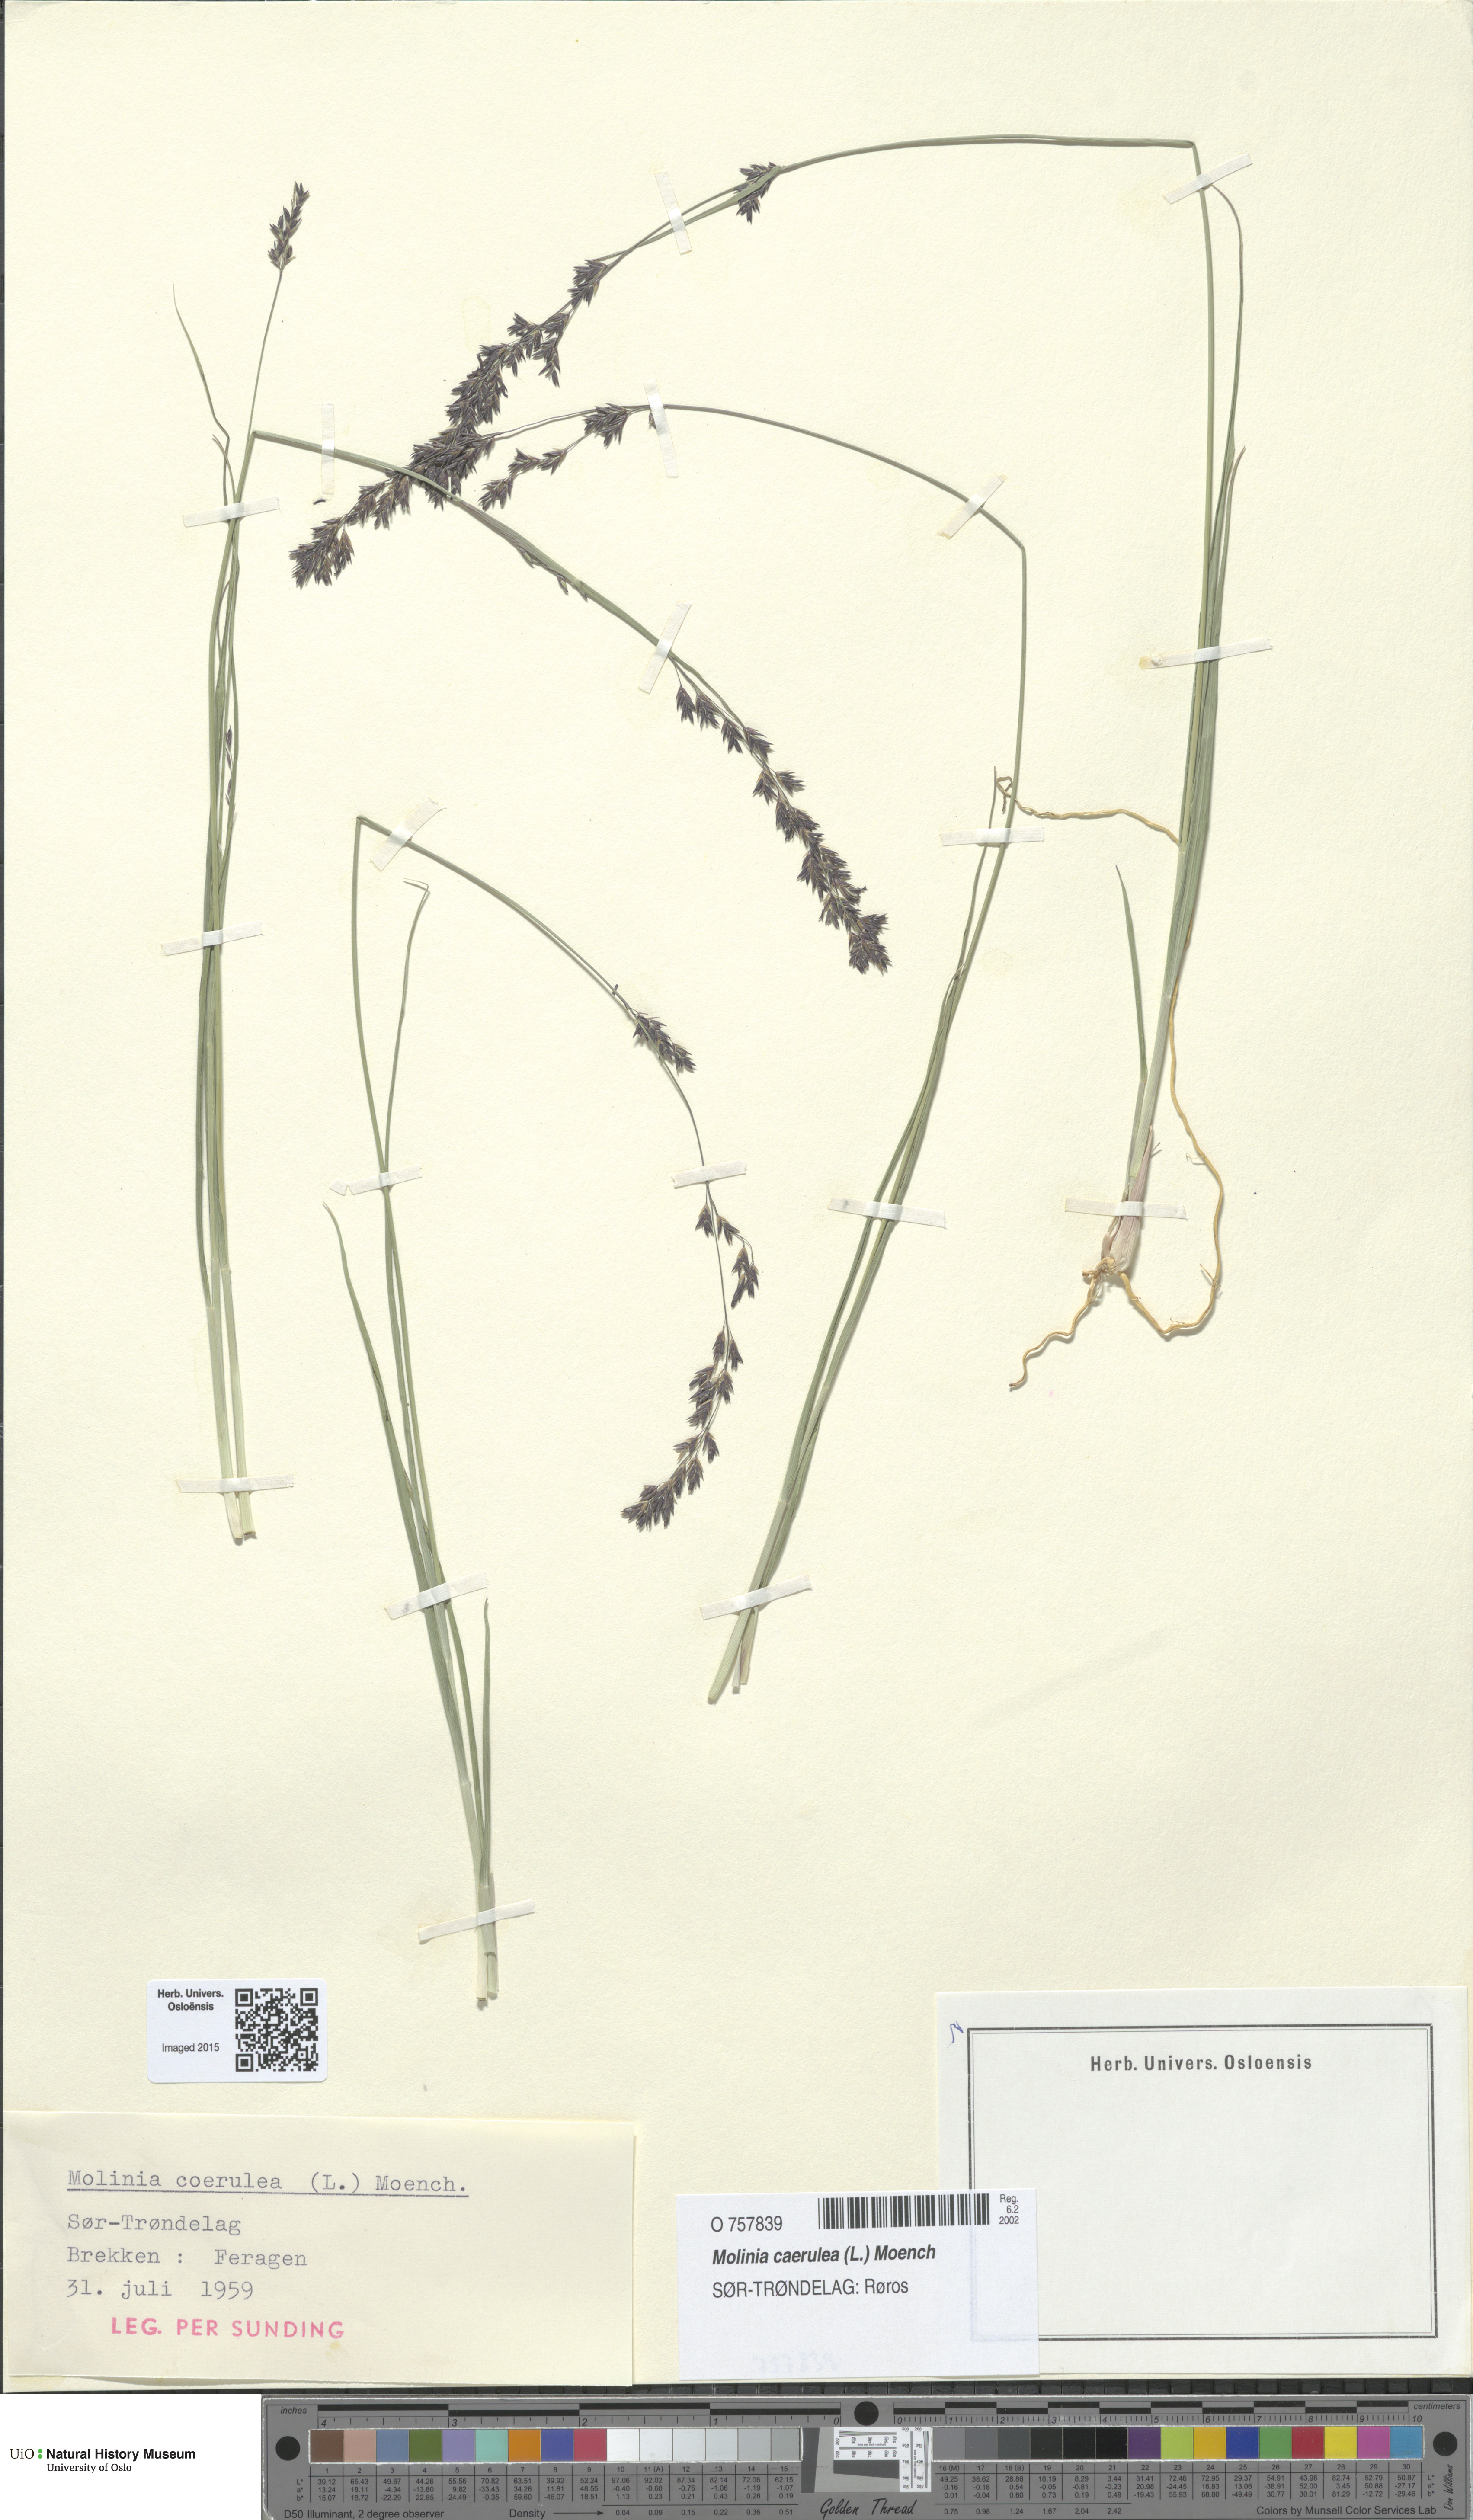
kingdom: Plantae
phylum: Tracheophyta
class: Liliopsida
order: Poales
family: Poaceae
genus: Molinia
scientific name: Molinia caerulea
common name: Purple moor-grass
